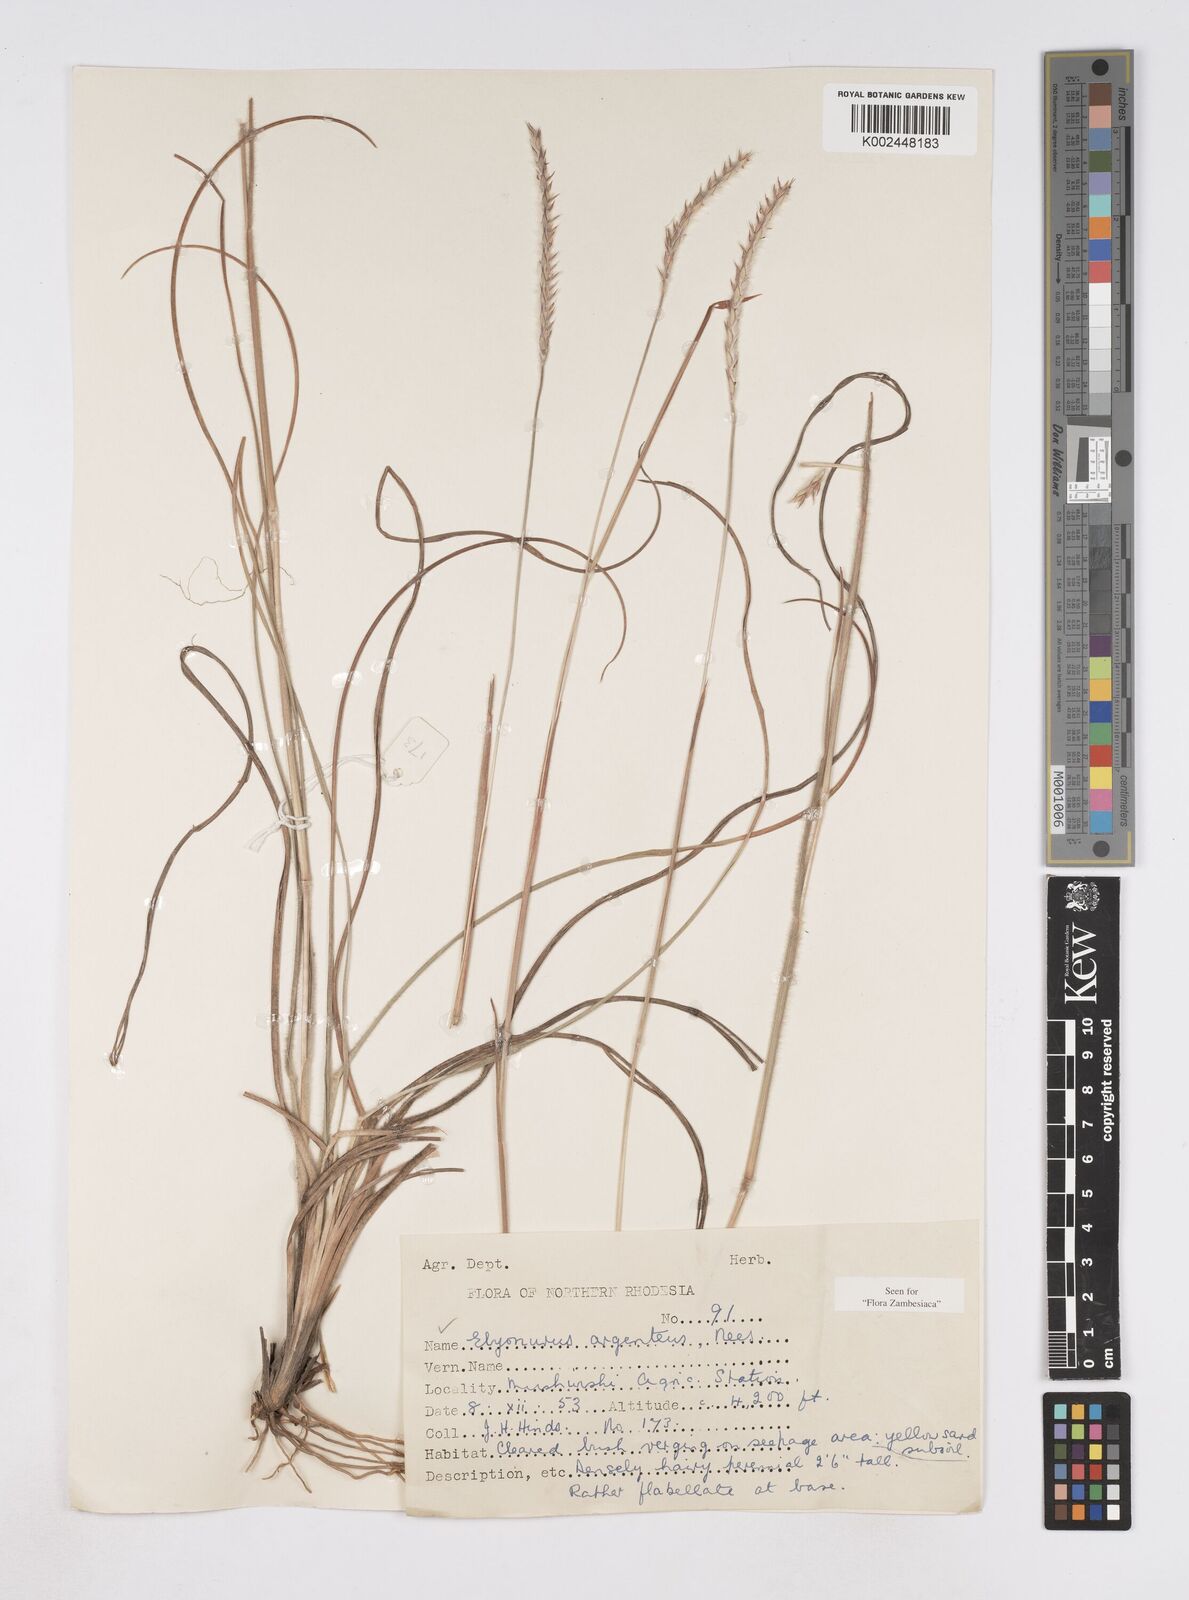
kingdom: Plantae
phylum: Tracheophyta
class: Liliopsida
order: Poales
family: Poaceae
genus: Elionurus
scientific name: Elionurus muticus
